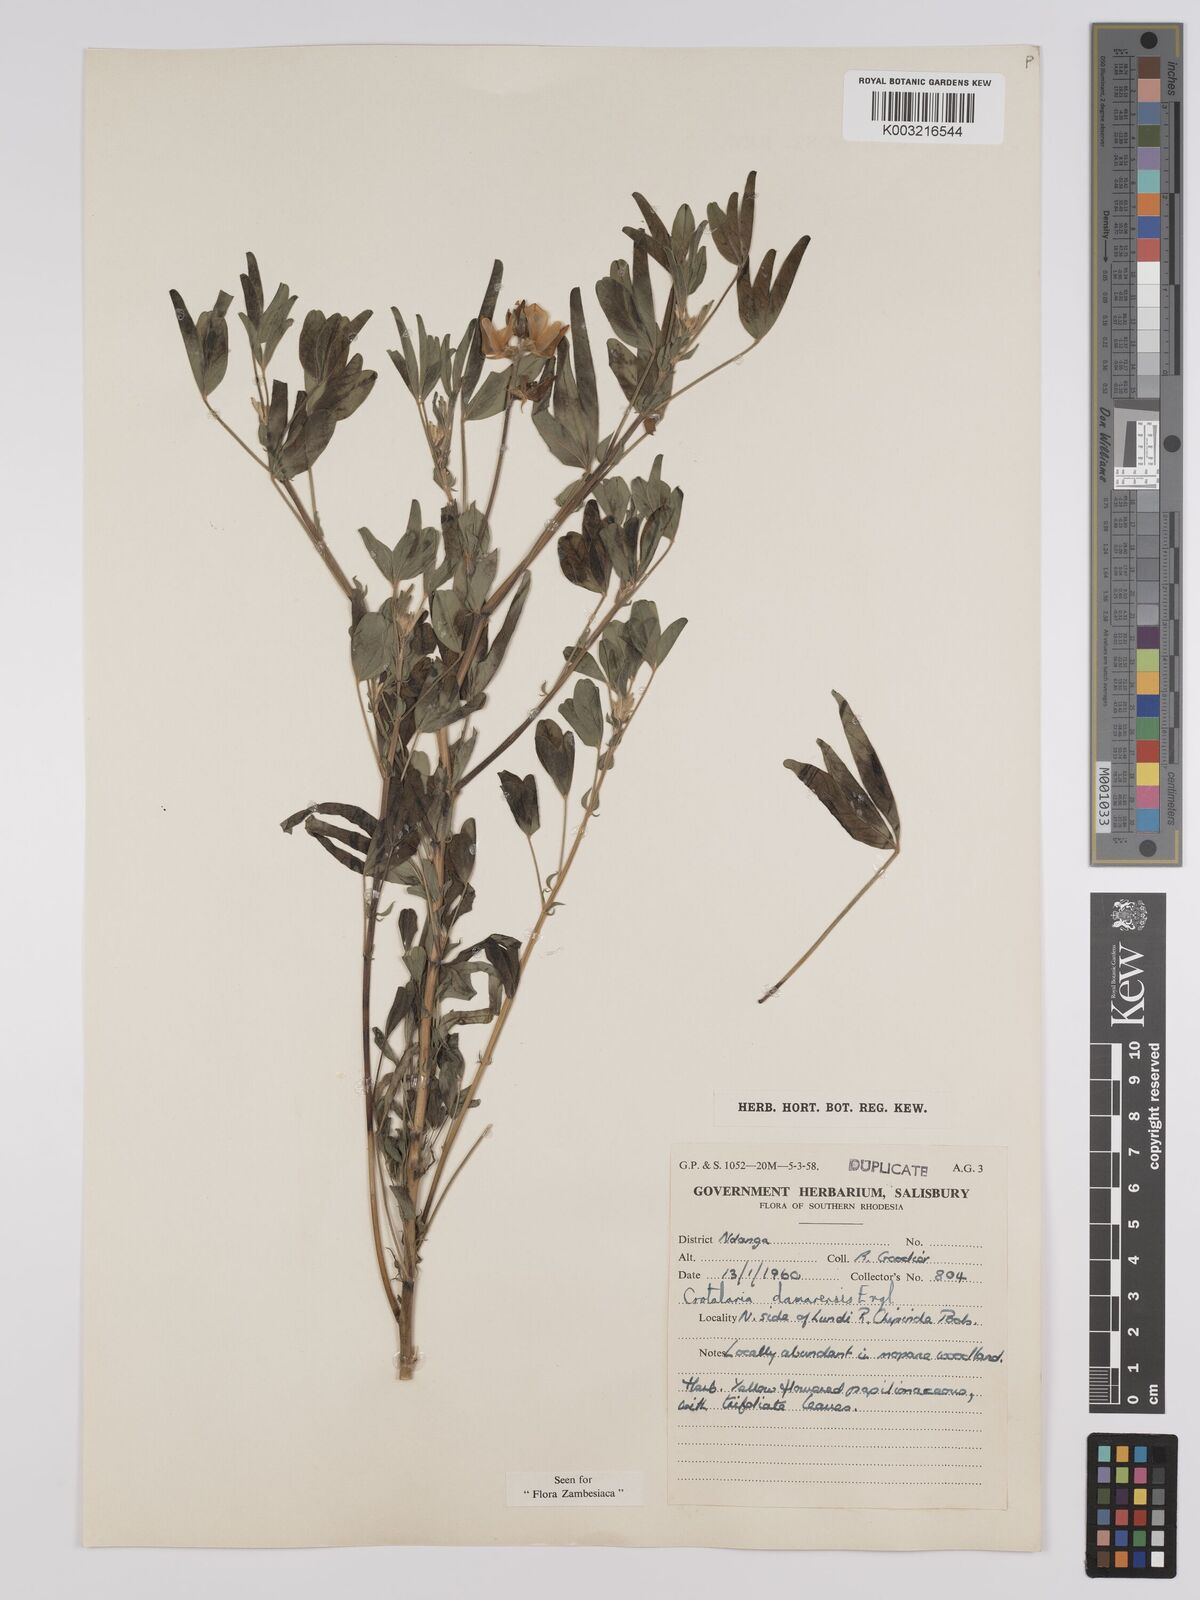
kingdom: Plantae
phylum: Tracheophyta
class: Magnoliopsida
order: Fabales
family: Fabaceae
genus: Crotalaria
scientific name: Crotalaria damarensis
